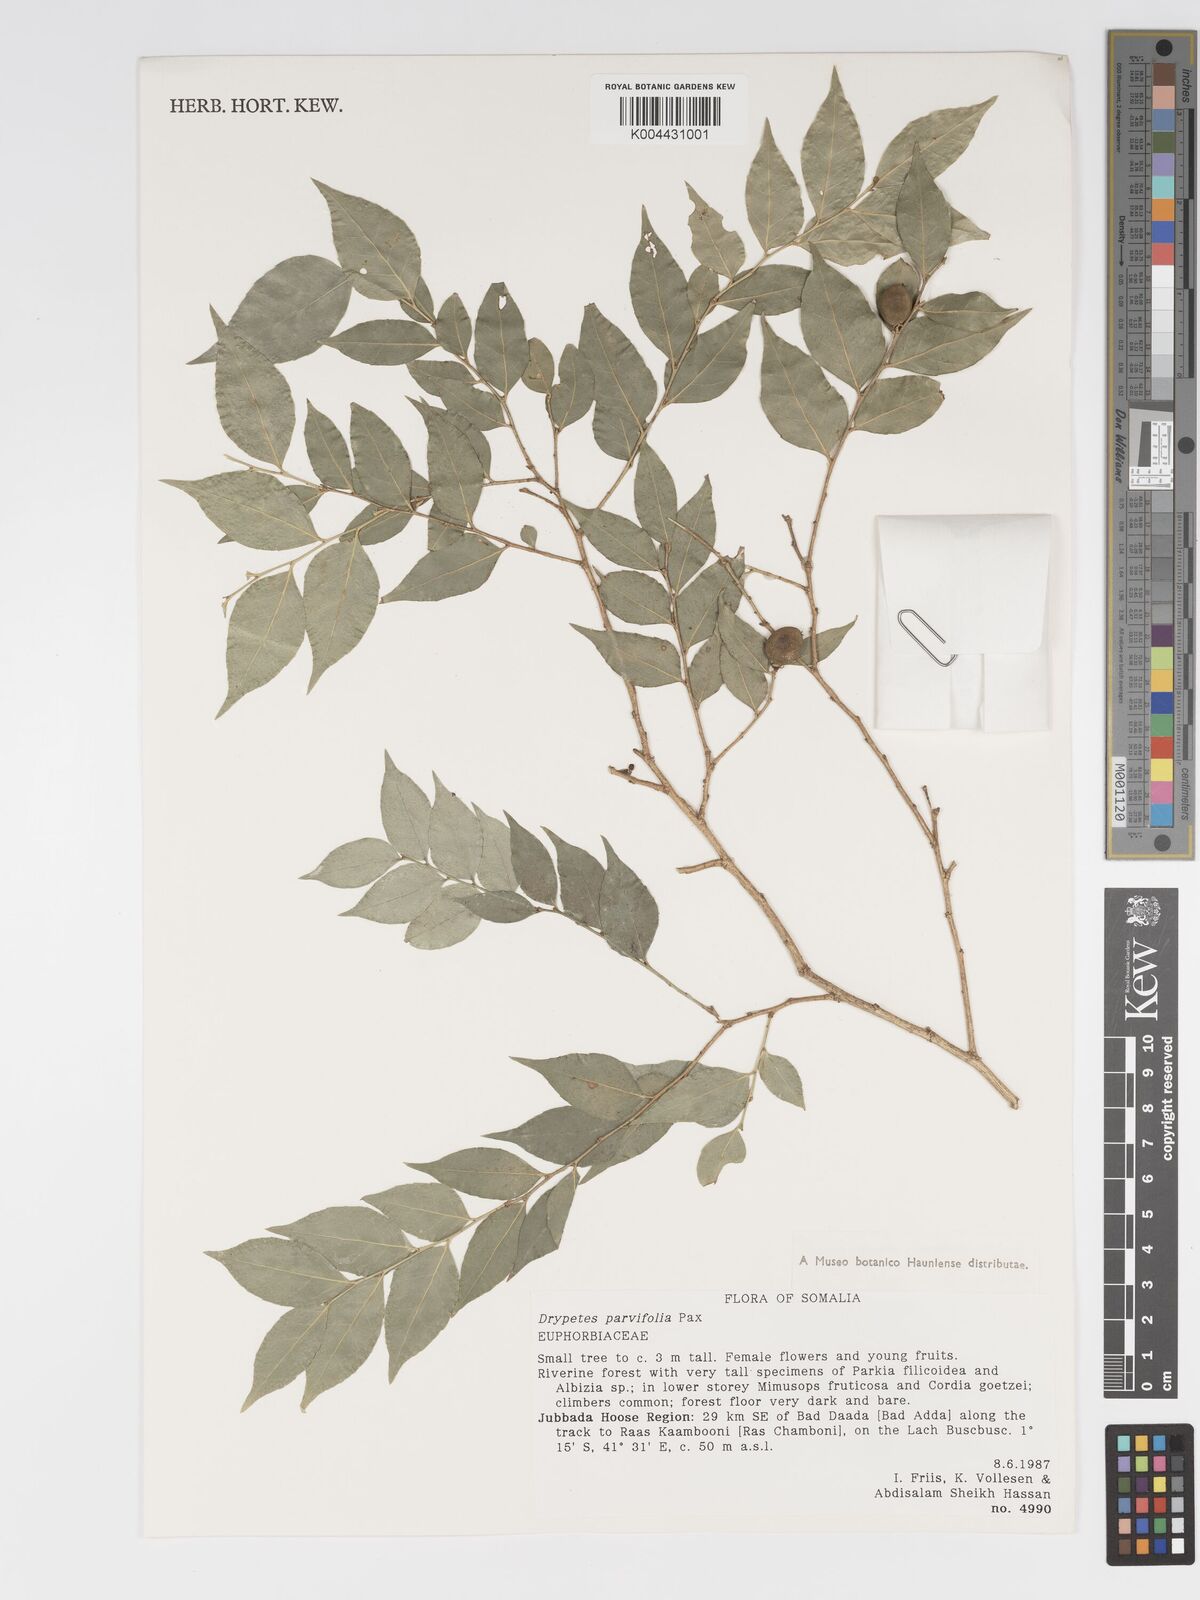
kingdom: Plantae
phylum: Tracheophyta
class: Magnoliopsida
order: Malpighiales
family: Putranjivaceae
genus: Drypetes
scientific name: Drypetes gerrardii
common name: Forest ironplum
